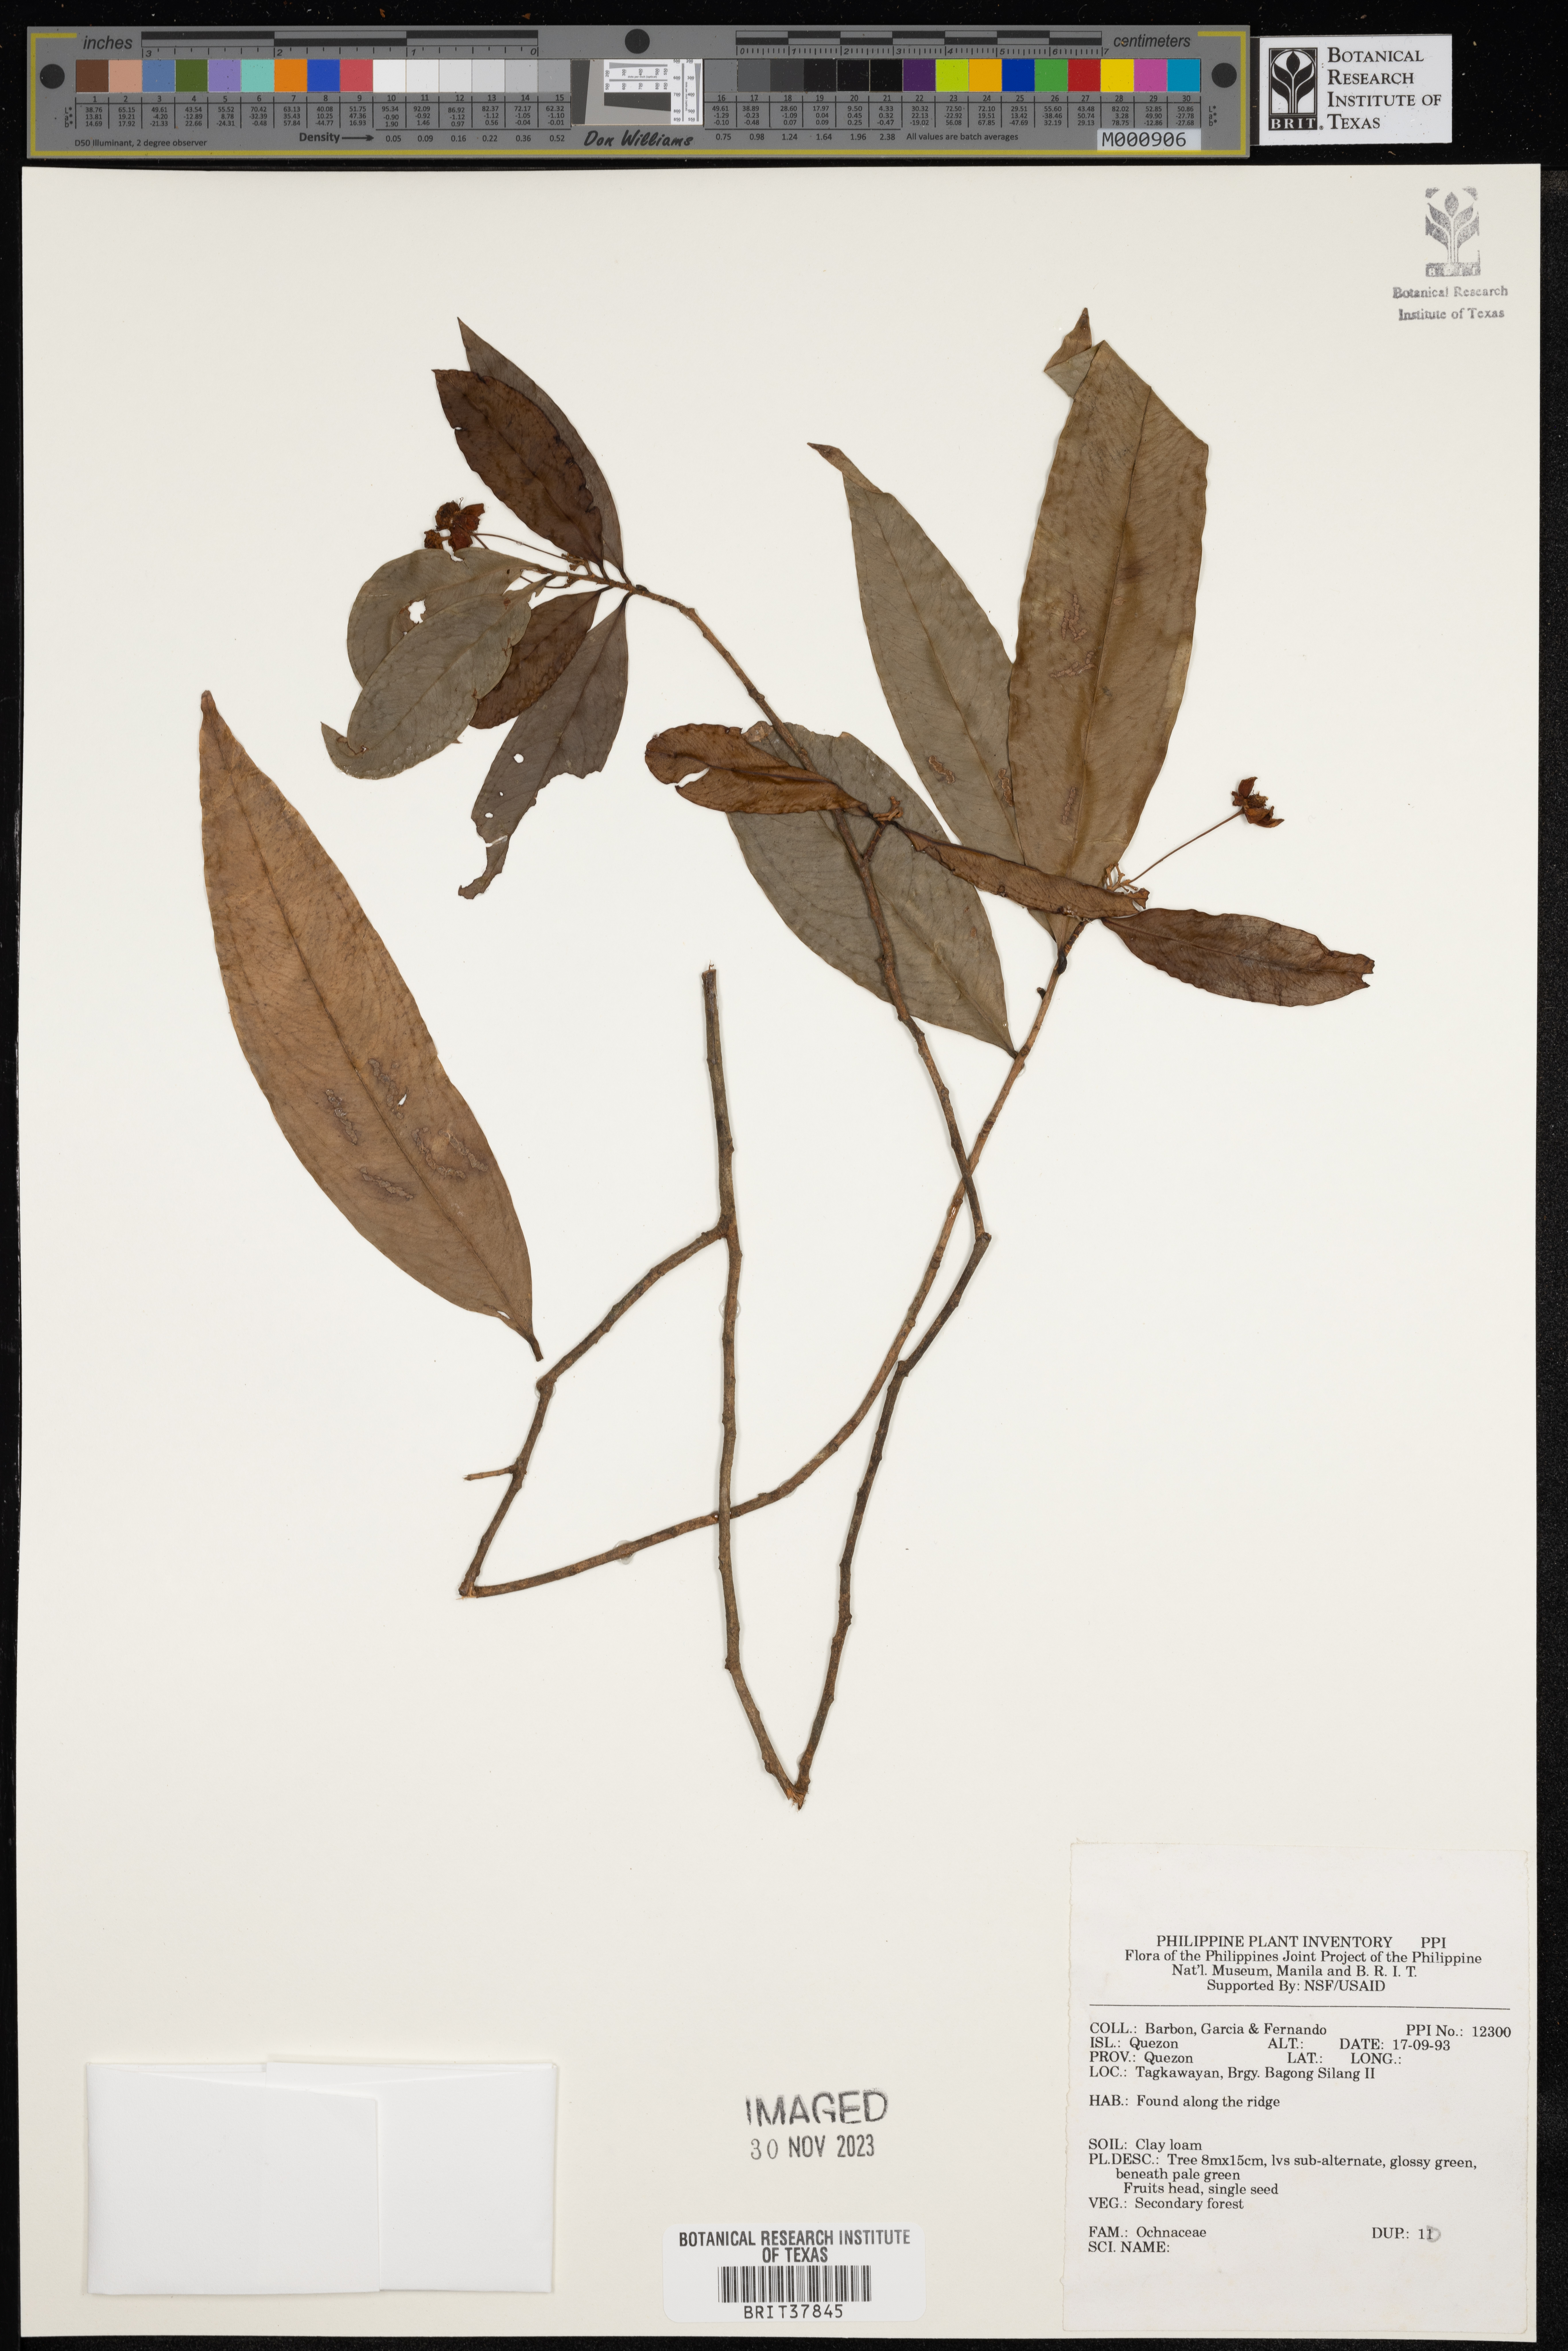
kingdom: Plantae
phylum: Tracheophyta
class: Magnoliopsida
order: Malpighiales
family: Ochnaceae
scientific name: Ochnaceae
